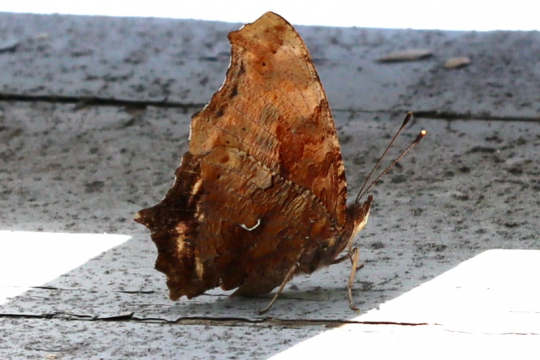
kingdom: Animalia
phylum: Arthropoda
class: Insecta
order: Lepidoptera
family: Nymphalidae
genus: Polygonia
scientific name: Polygonia comma
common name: Eastern Comma
